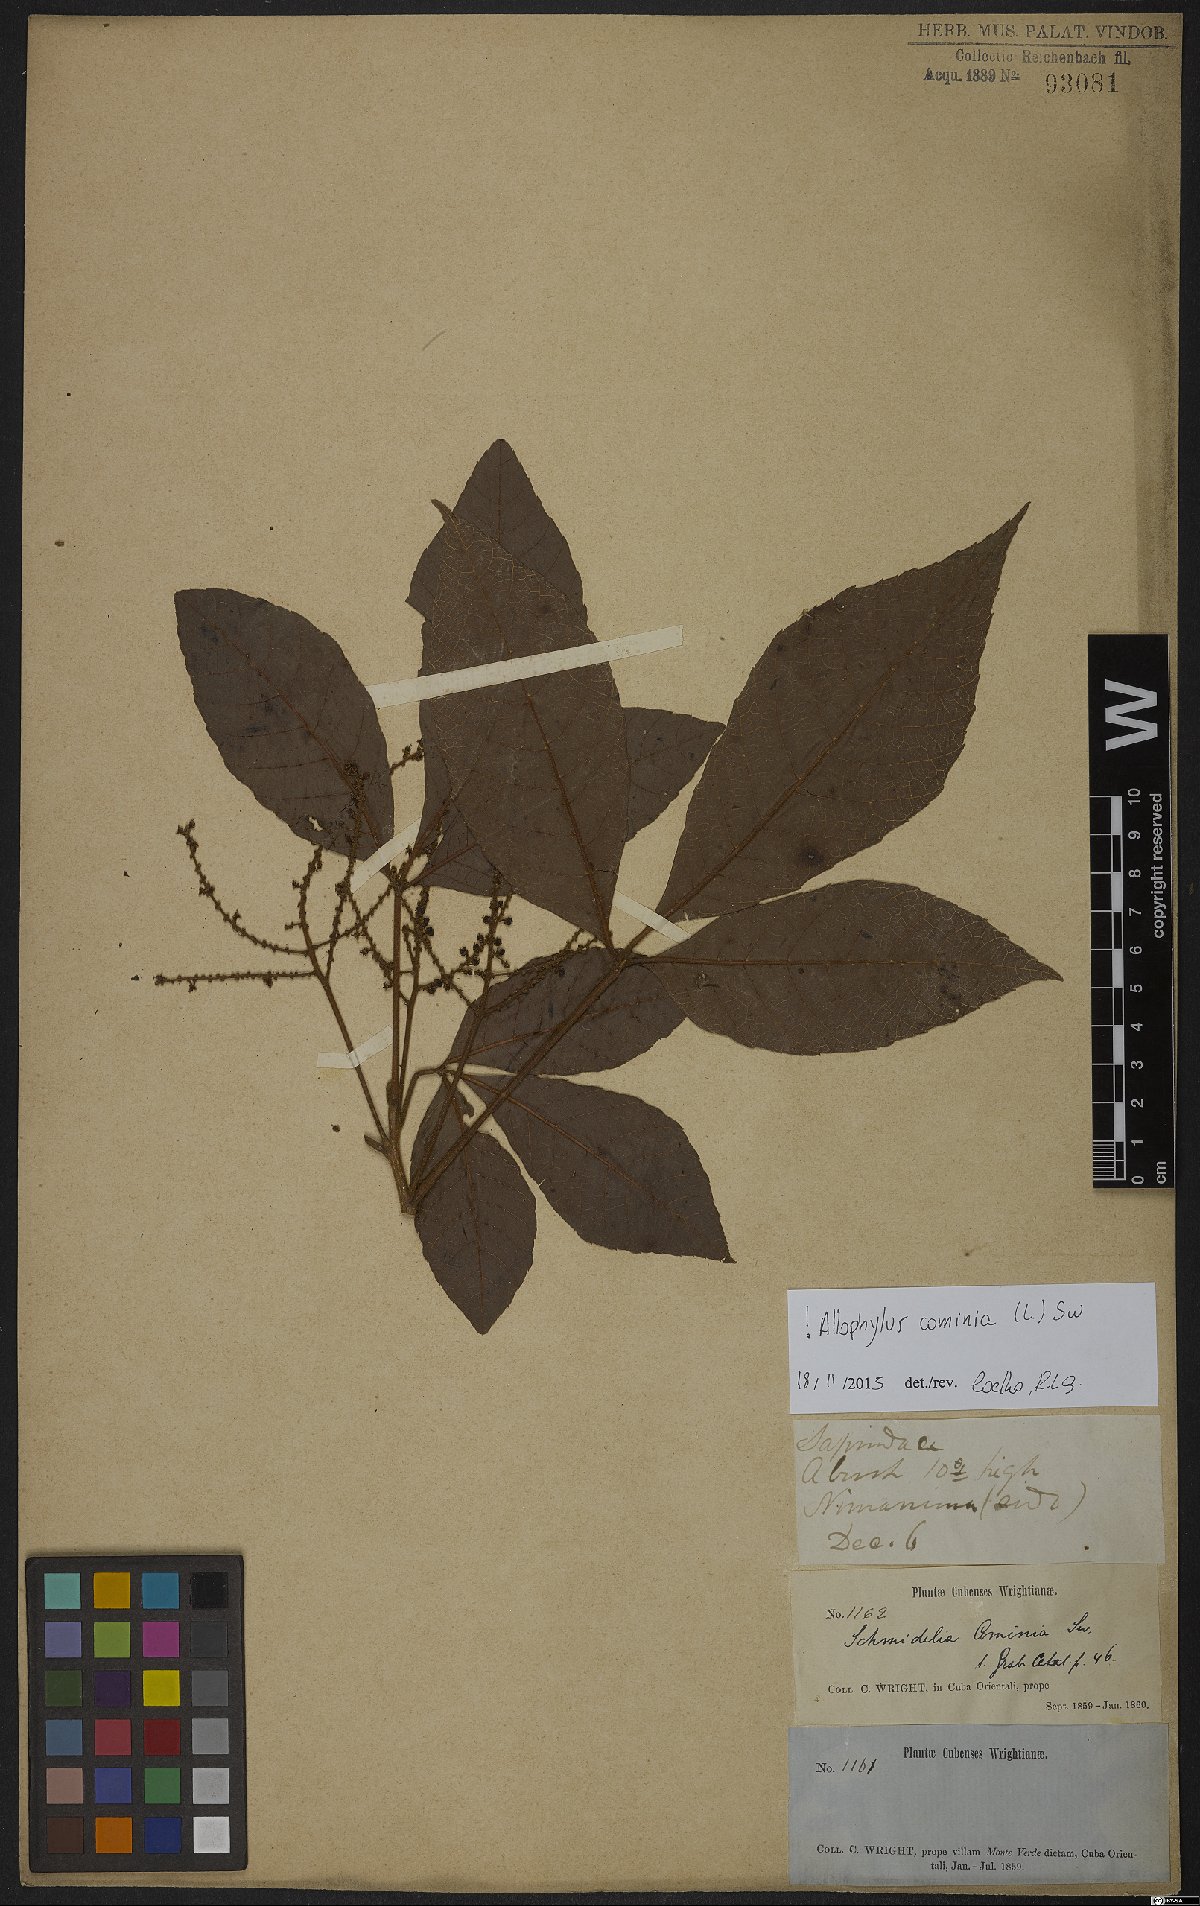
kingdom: Plantae
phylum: Tracheophyta
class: Magnoliopsida
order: Sapindales
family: Sapindaceae
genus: Allophylus
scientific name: Allophylus cominia
